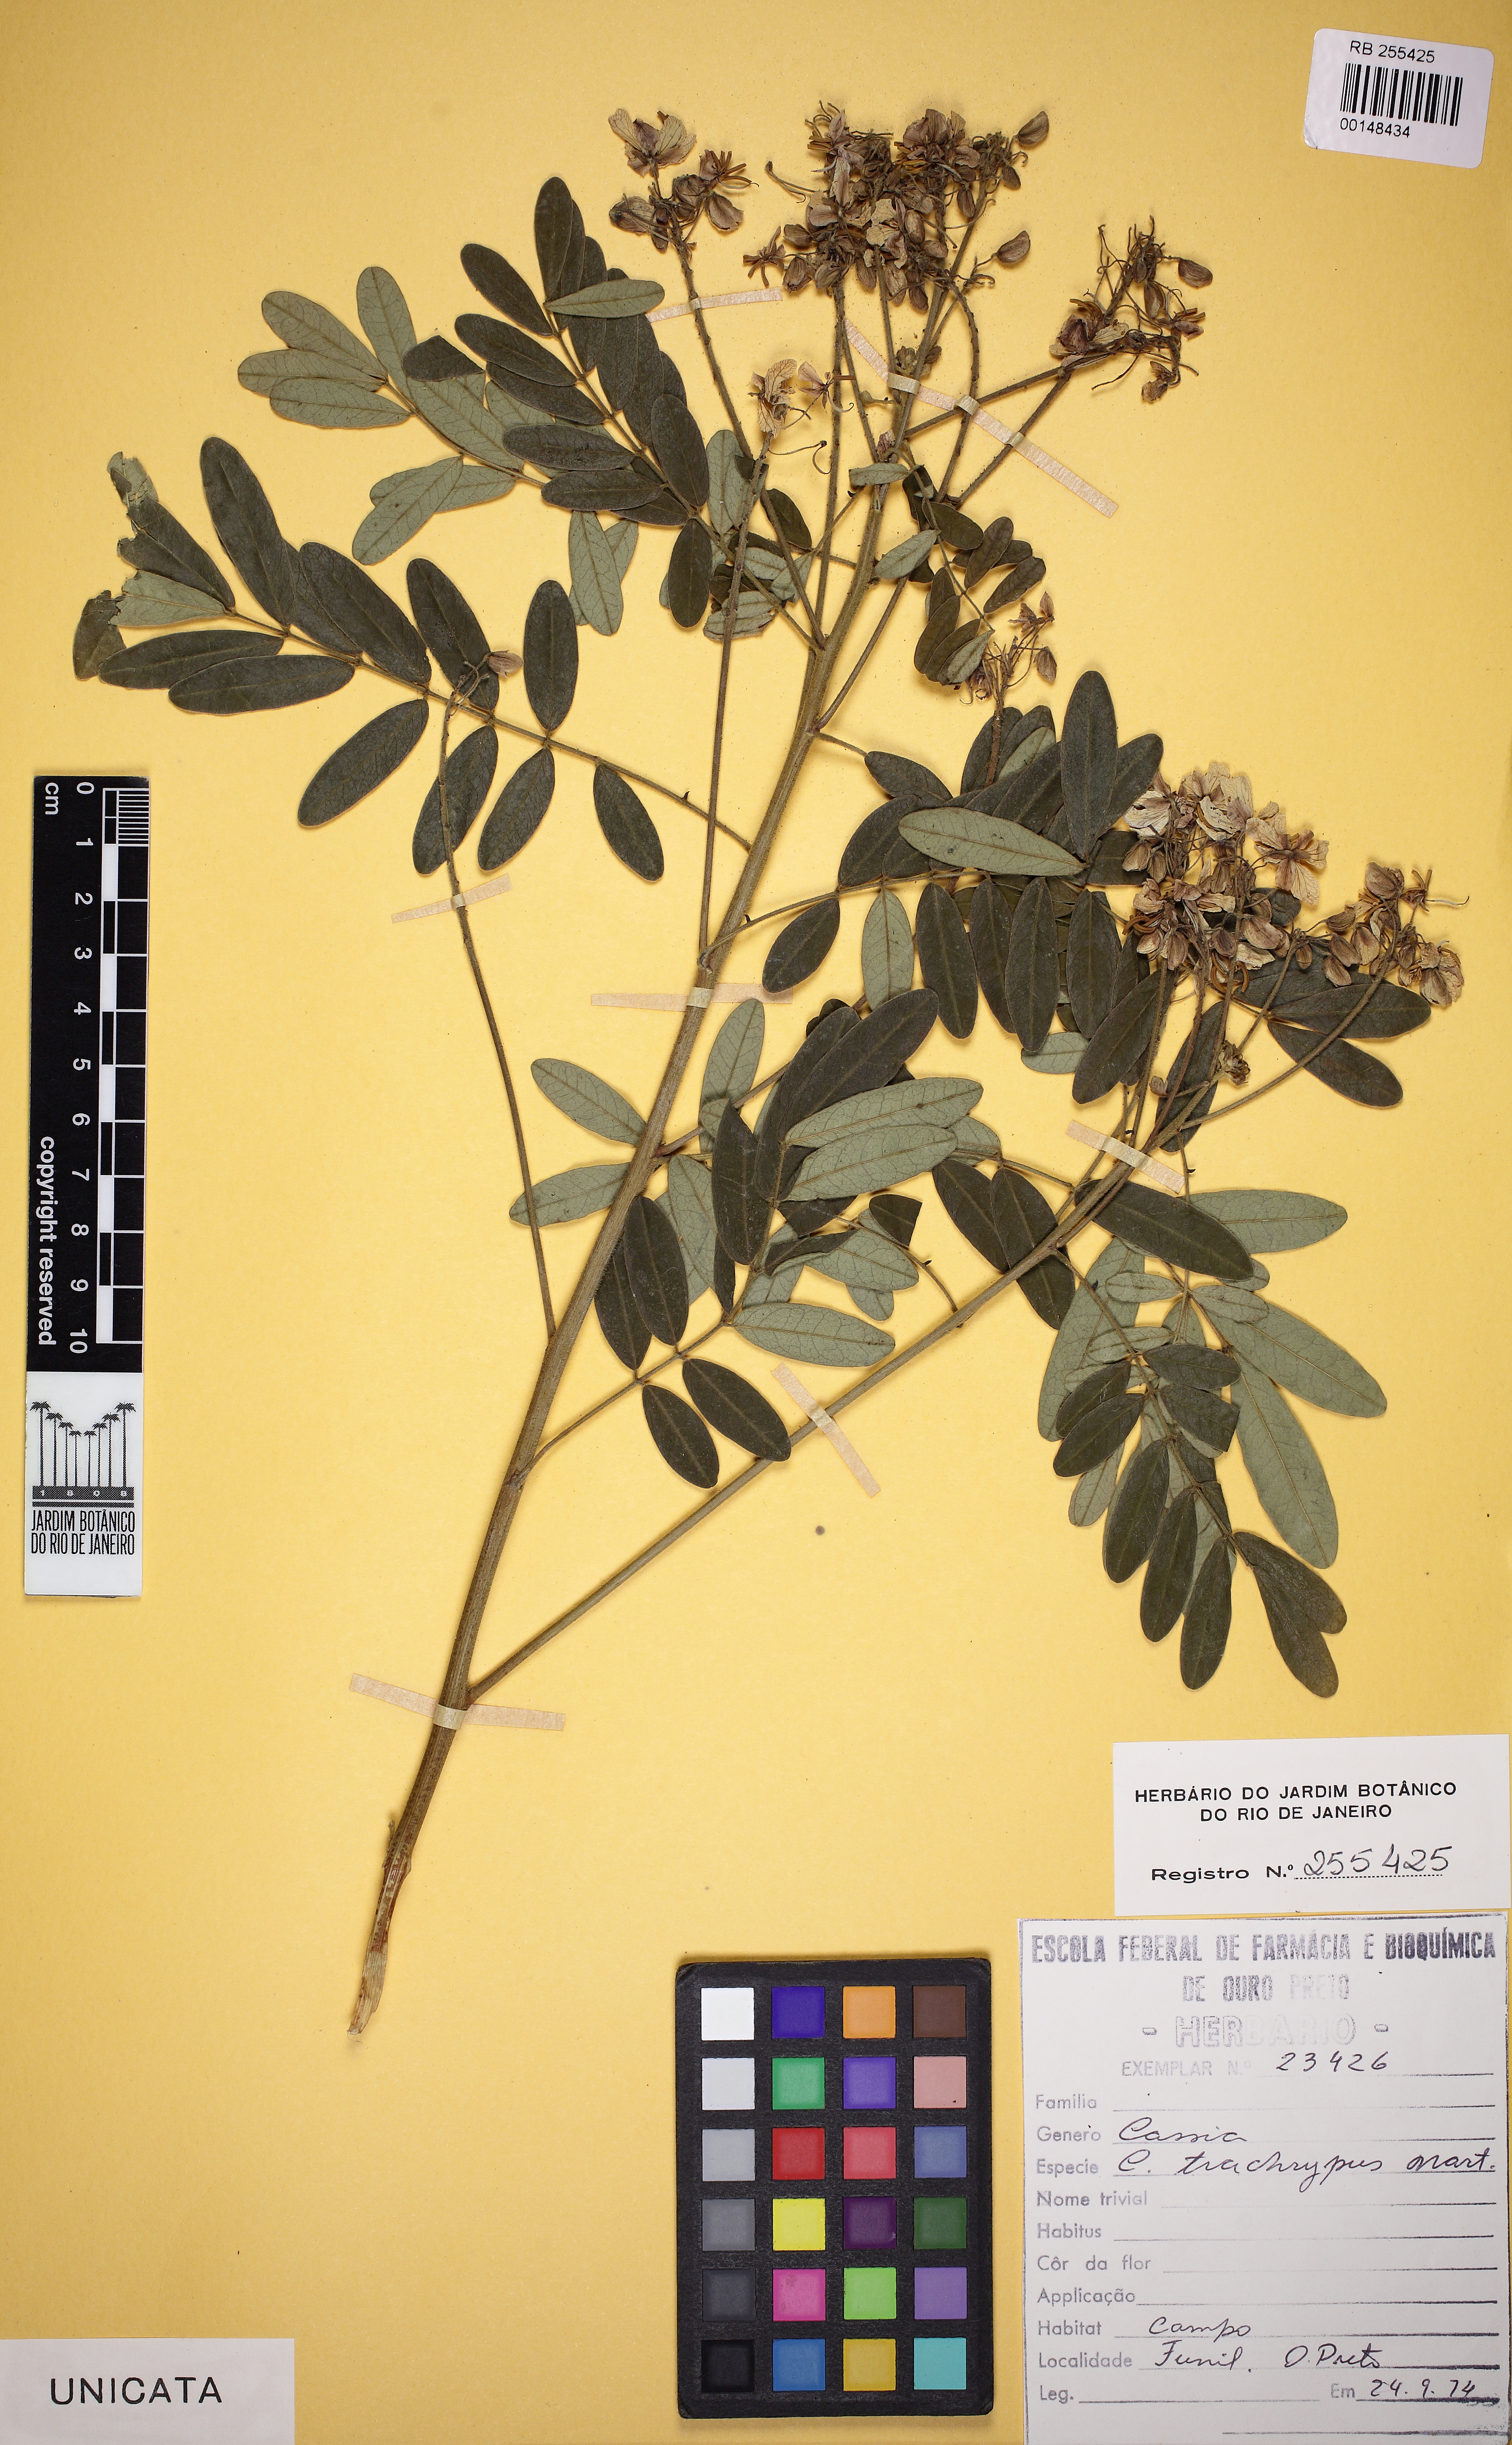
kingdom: Plantae
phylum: Tracheophyta
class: Magnoliopsida
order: Fabales
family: Fabaceae
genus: Senna
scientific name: Senna oblongifolia
